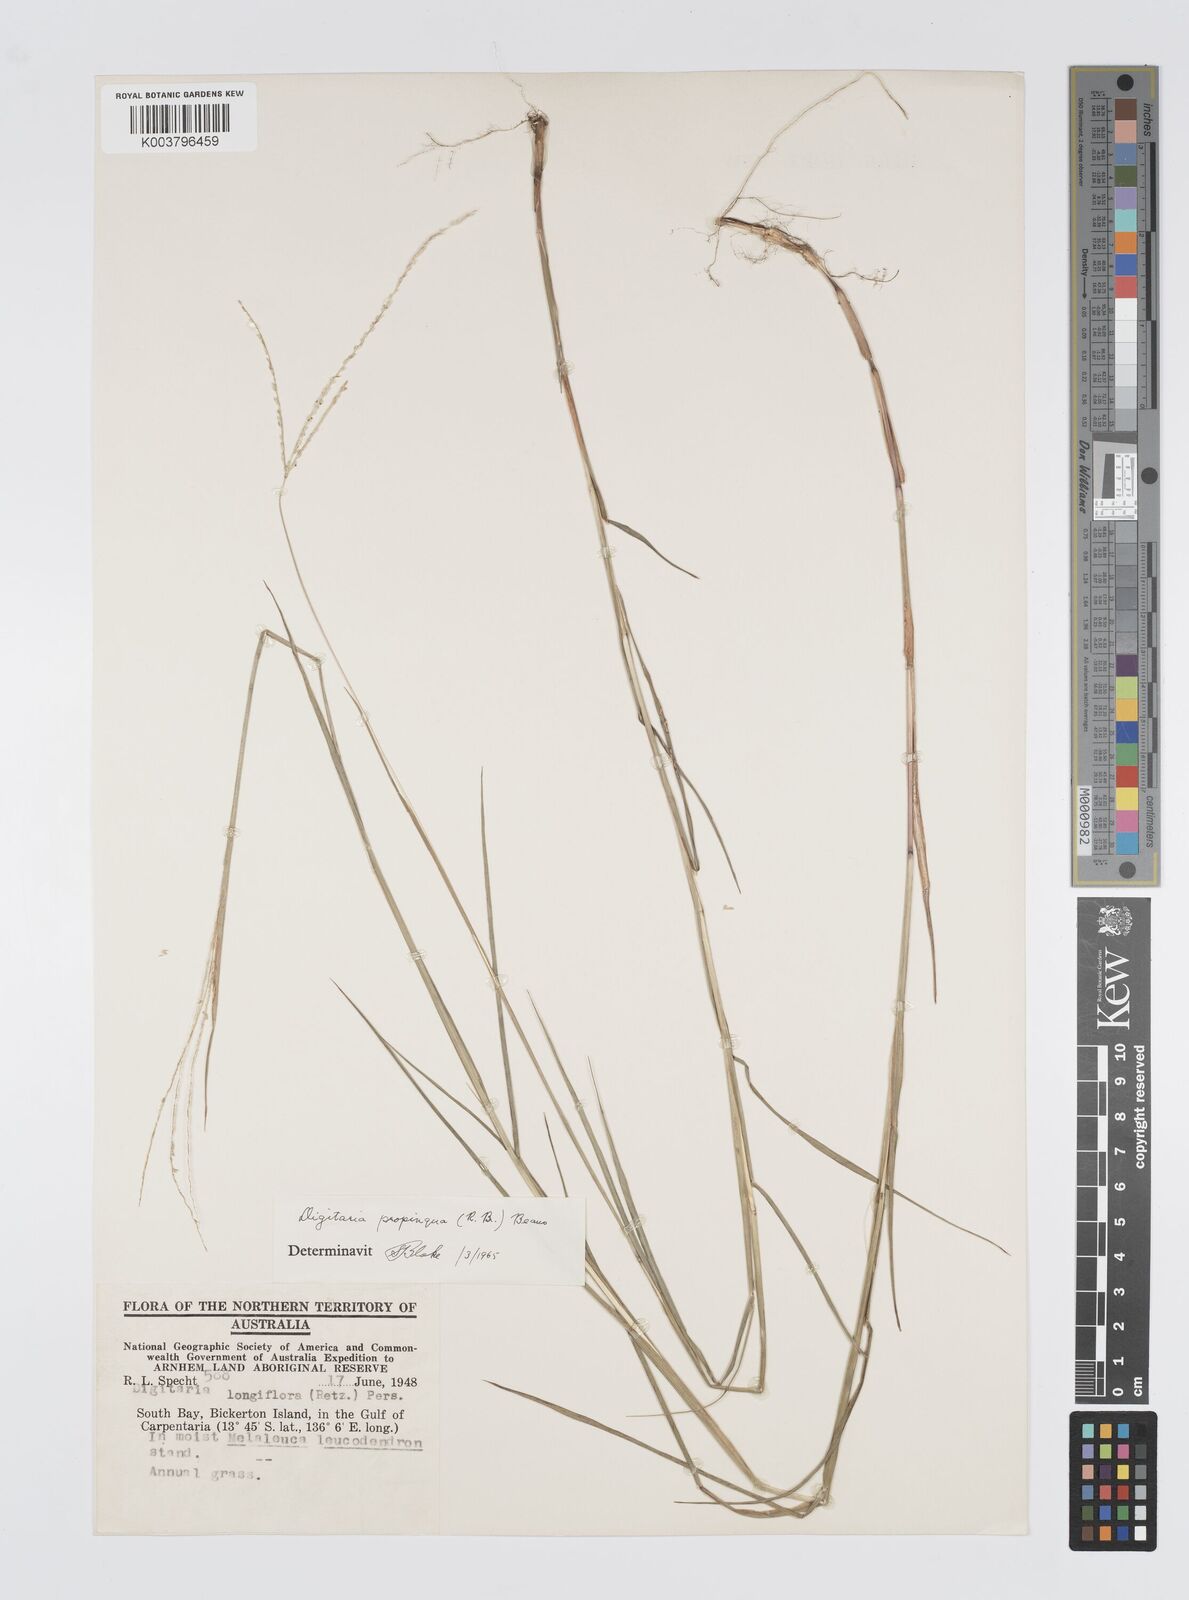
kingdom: Plantae
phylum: Tracheophyta
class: Liliopsida
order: Poales
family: Poaceae
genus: Digitaria
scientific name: Digitaria heterantha
